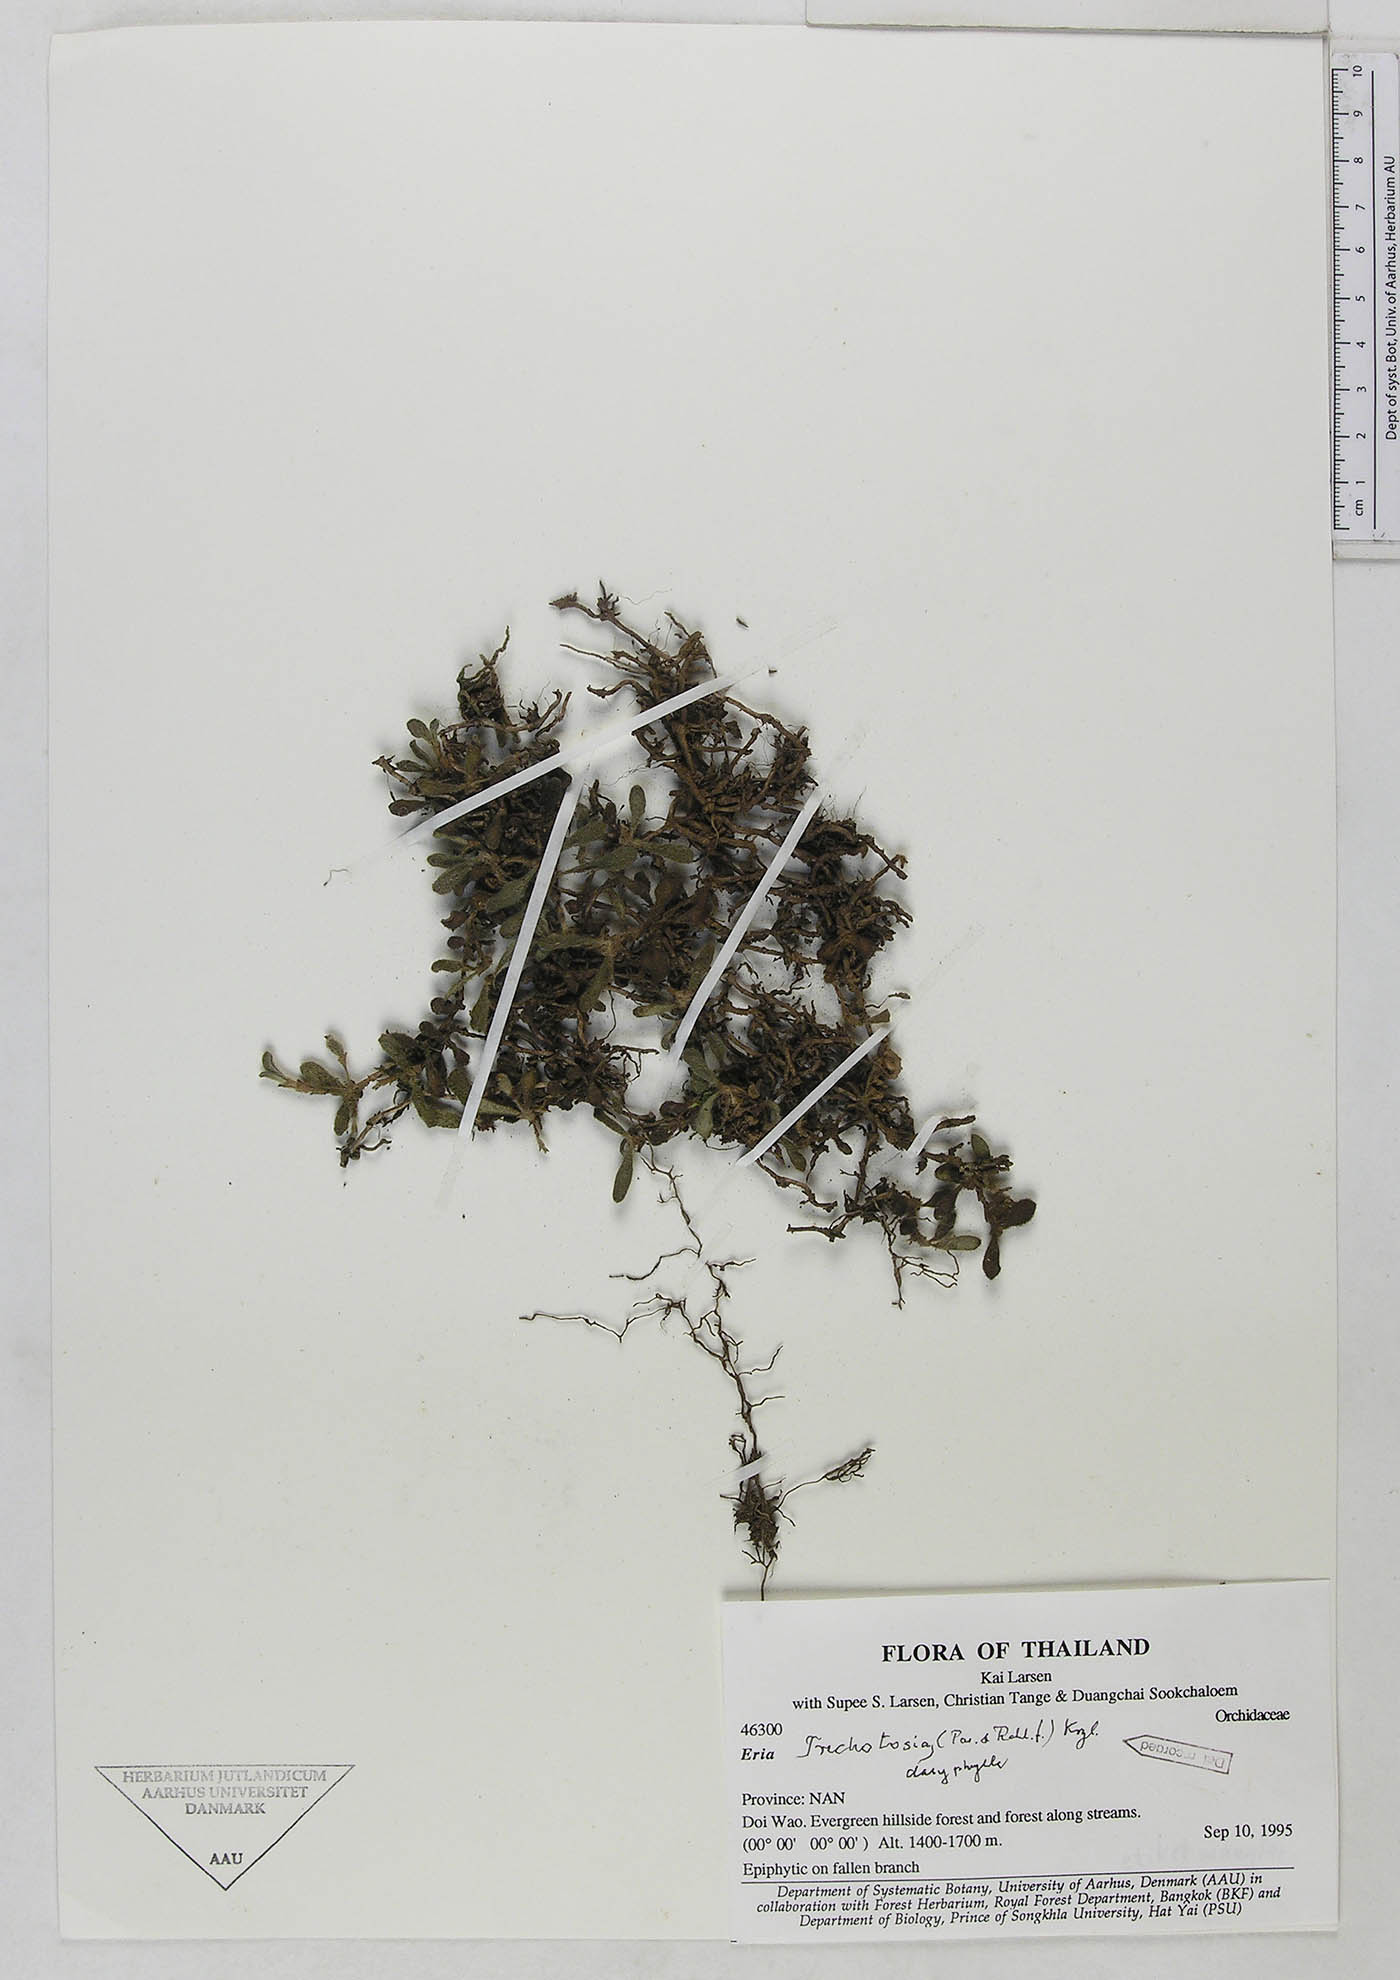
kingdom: Plantae
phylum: Tracheophyta
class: Liliopsida
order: Asparagales
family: Orchidaceae
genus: Trichotosia
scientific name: Trichotosia dasyphylla
